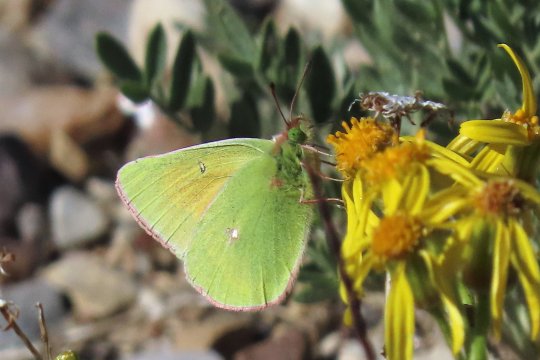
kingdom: Animalia
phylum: Arthropoda
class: Insecta
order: Lepidoptera
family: Pieridae
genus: Colias
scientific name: Colias meadii
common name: Mead's Sulphur
